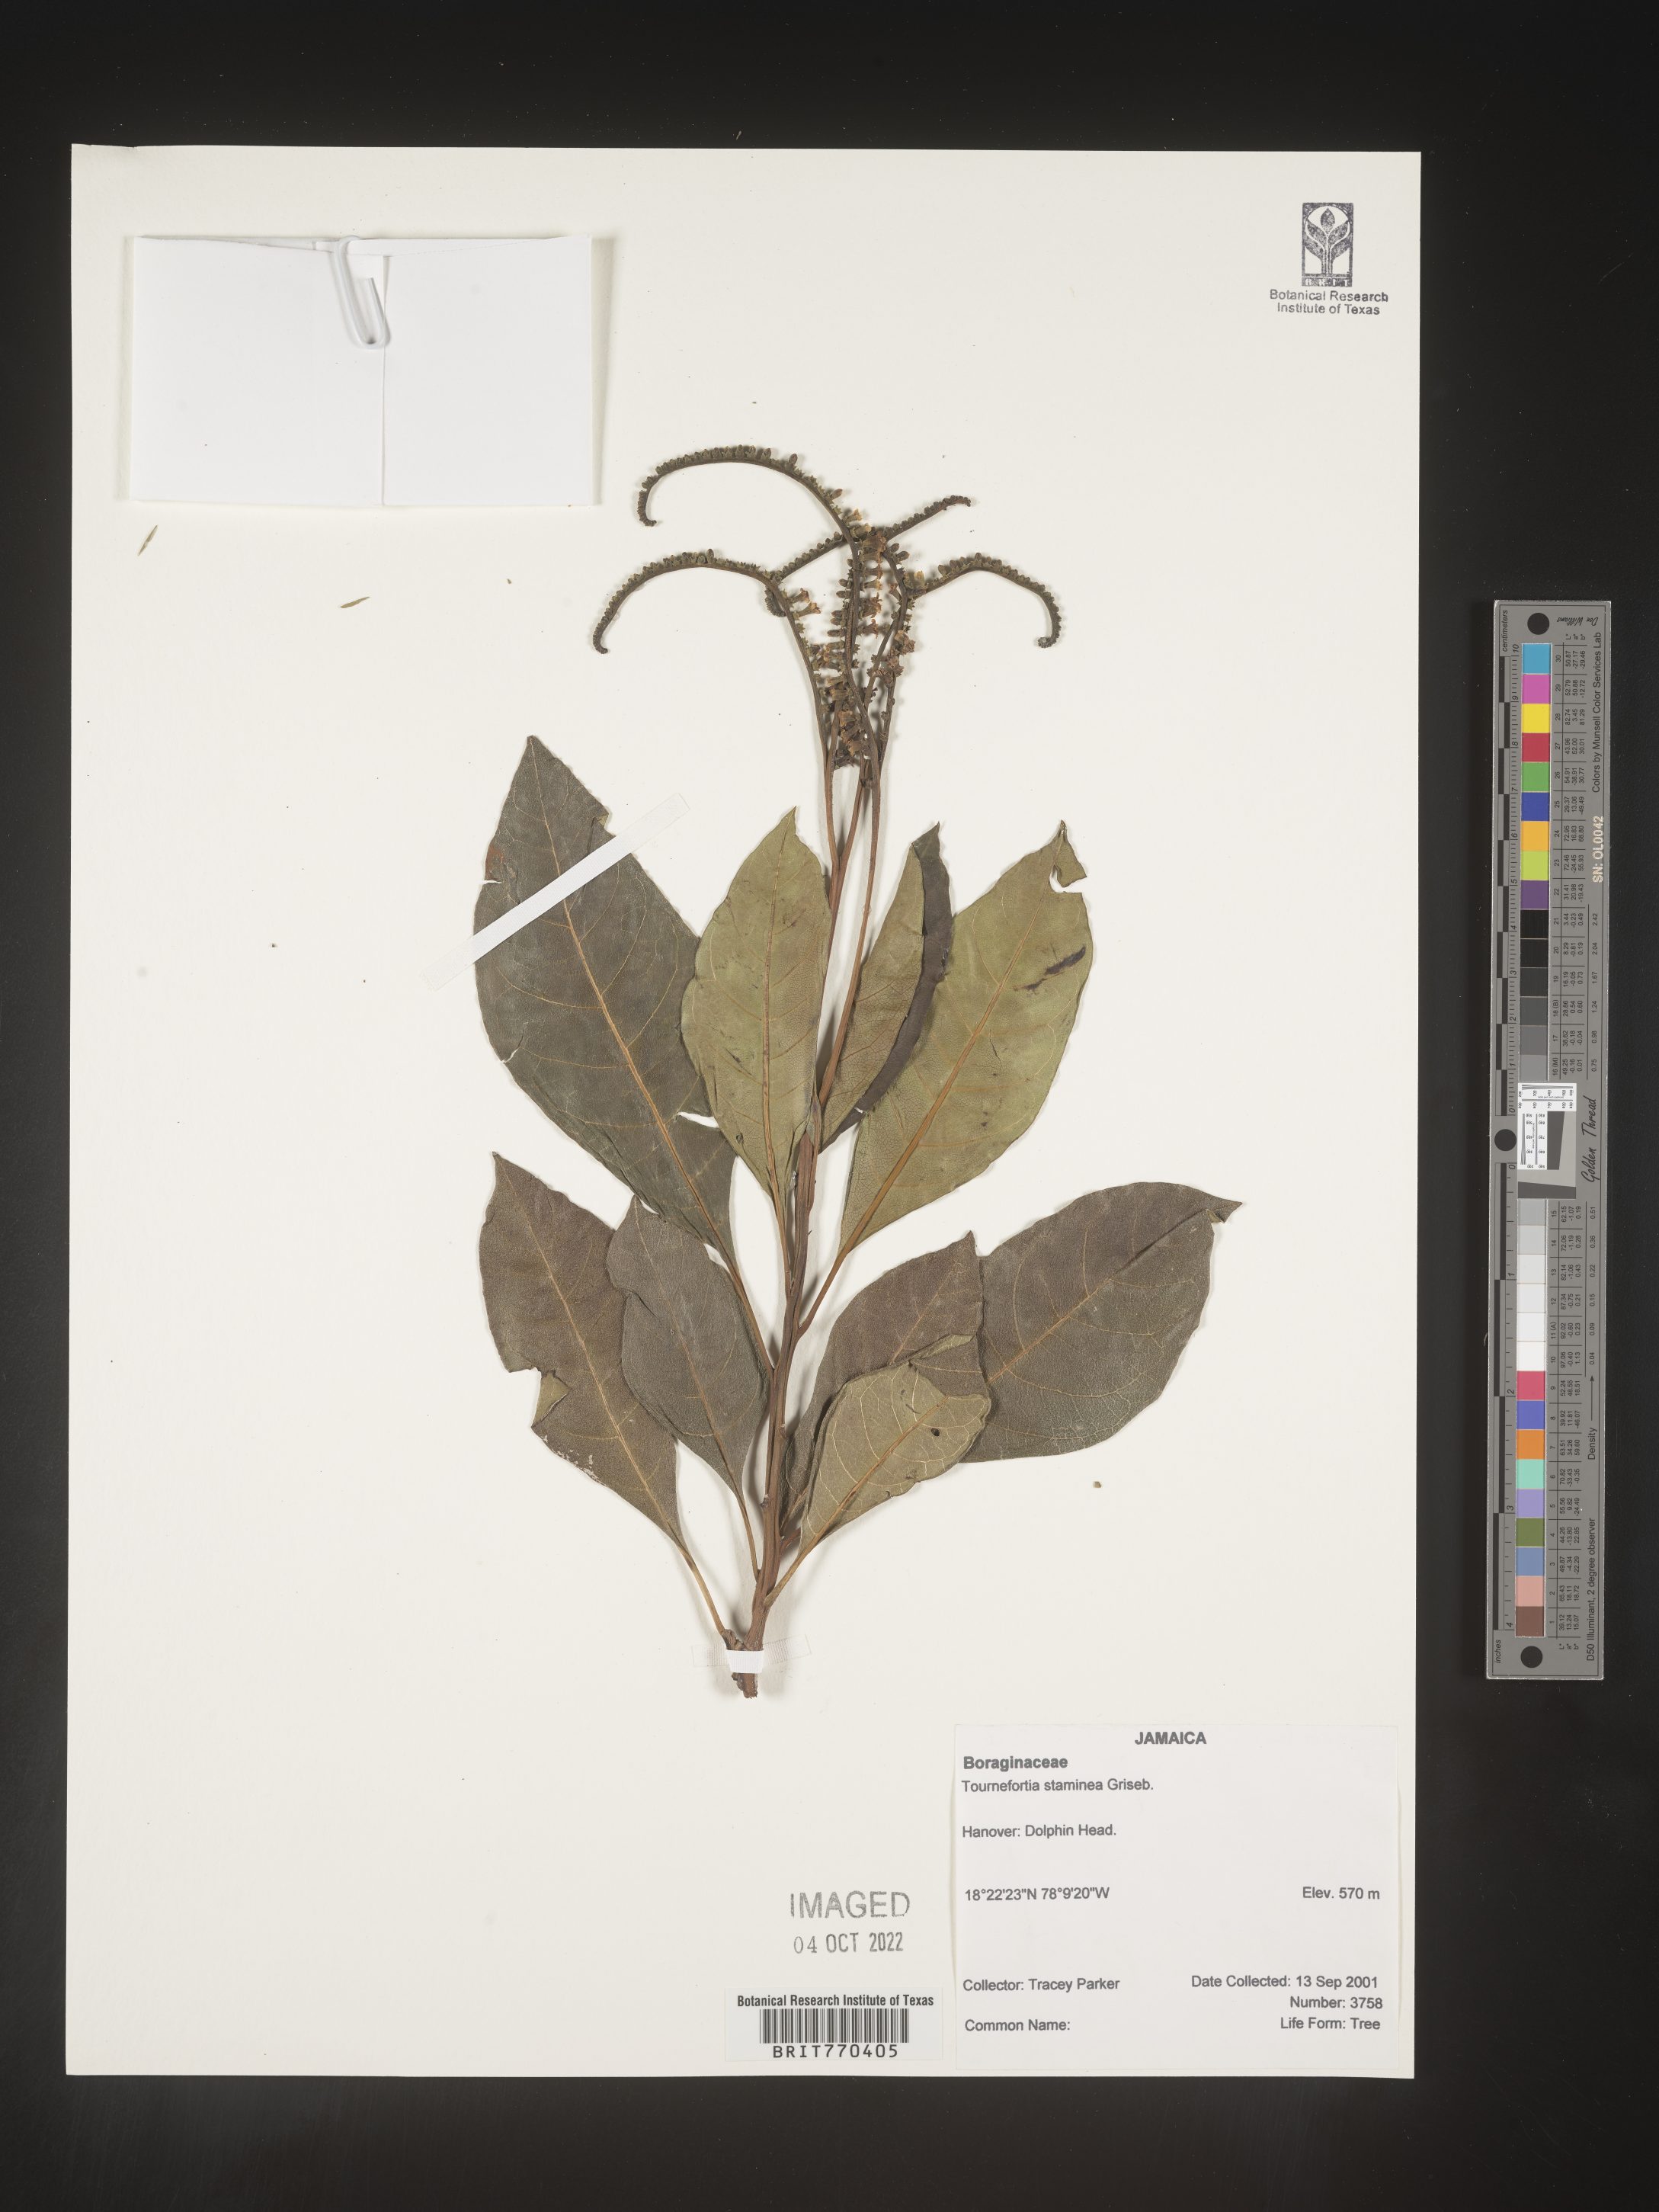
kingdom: Plantae
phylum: Tracheophyta
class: Magnoliopsida
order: Boraginales
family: Heliotropiaceae
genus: Tournefortia
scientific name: Tournefortia
